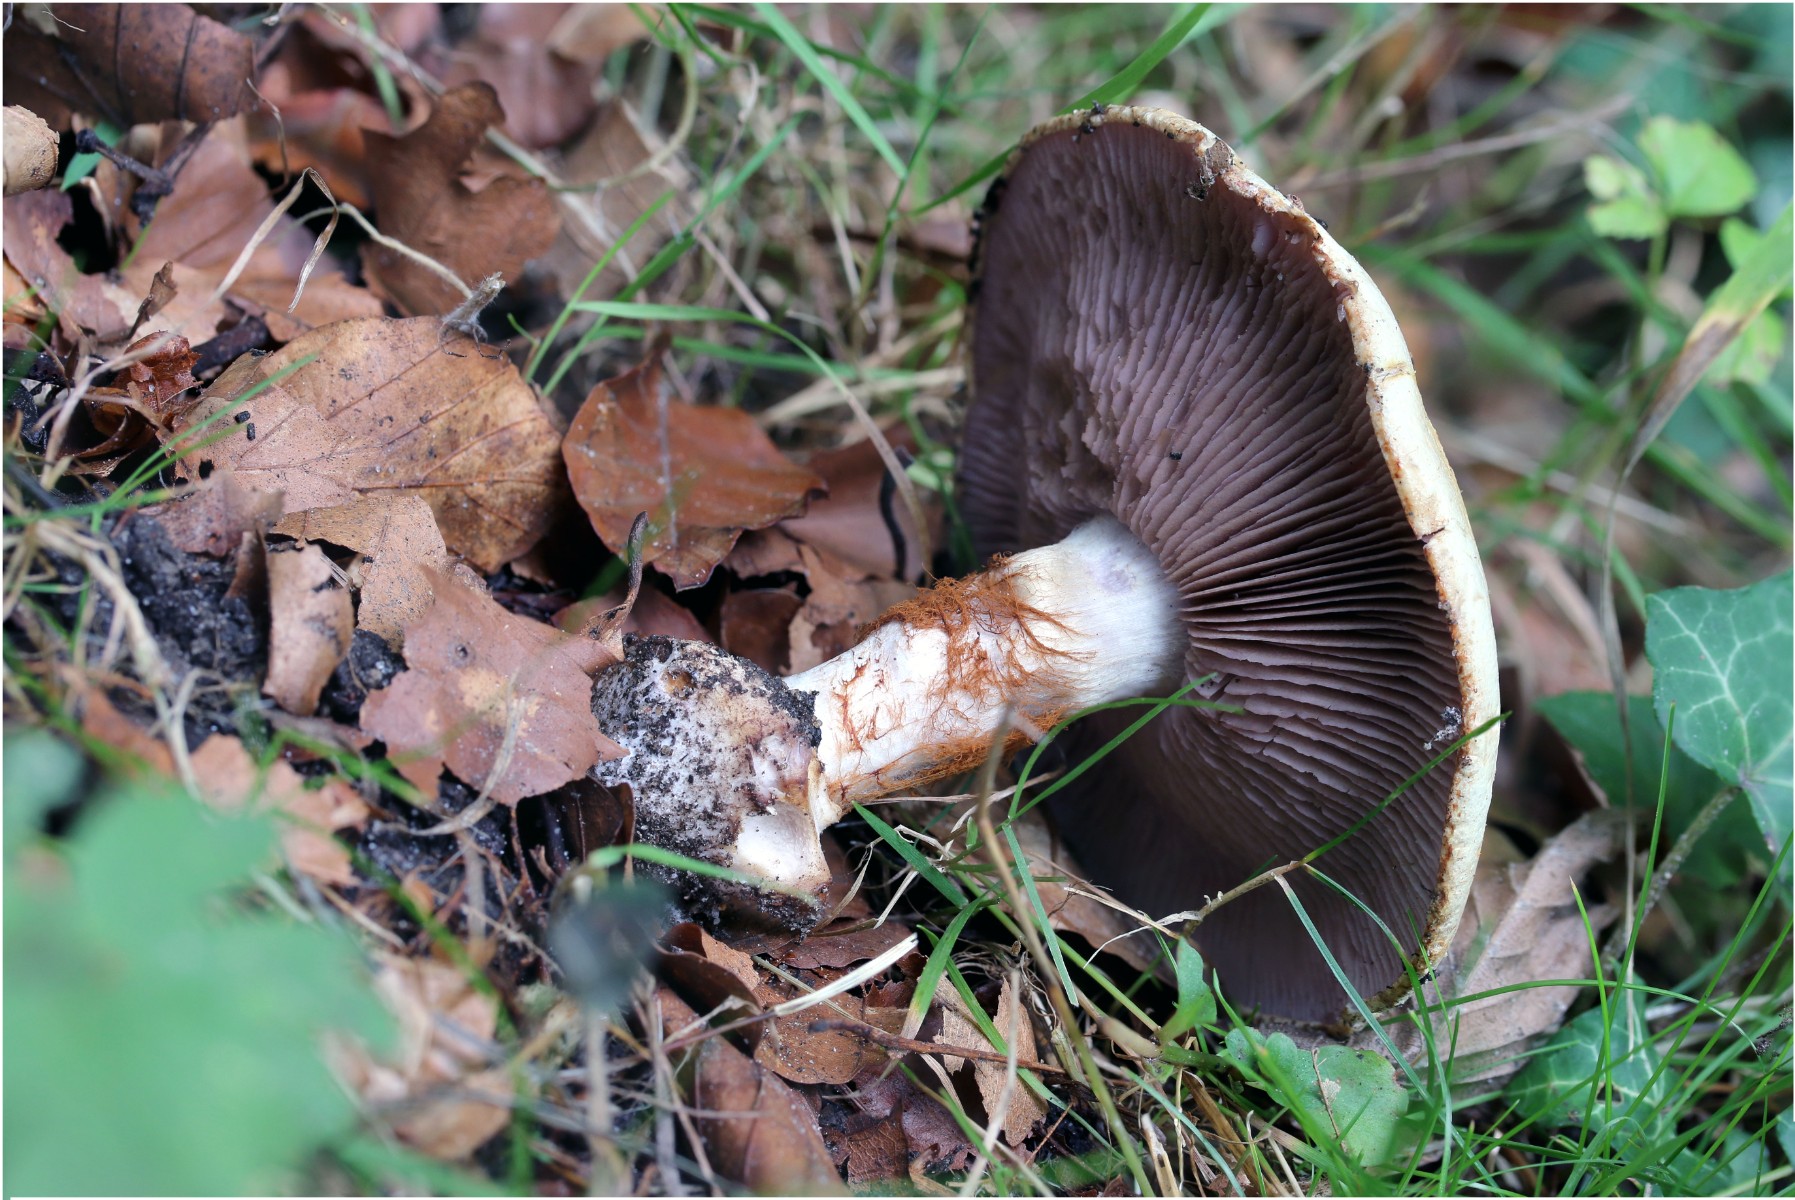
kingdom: Fungi
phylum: Basidiomycota
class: Agaricomycetes
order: Agaricales
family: Cortinariaceae
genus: Calonarius
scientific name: Calonarius albertii
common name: Alberts slørhat
